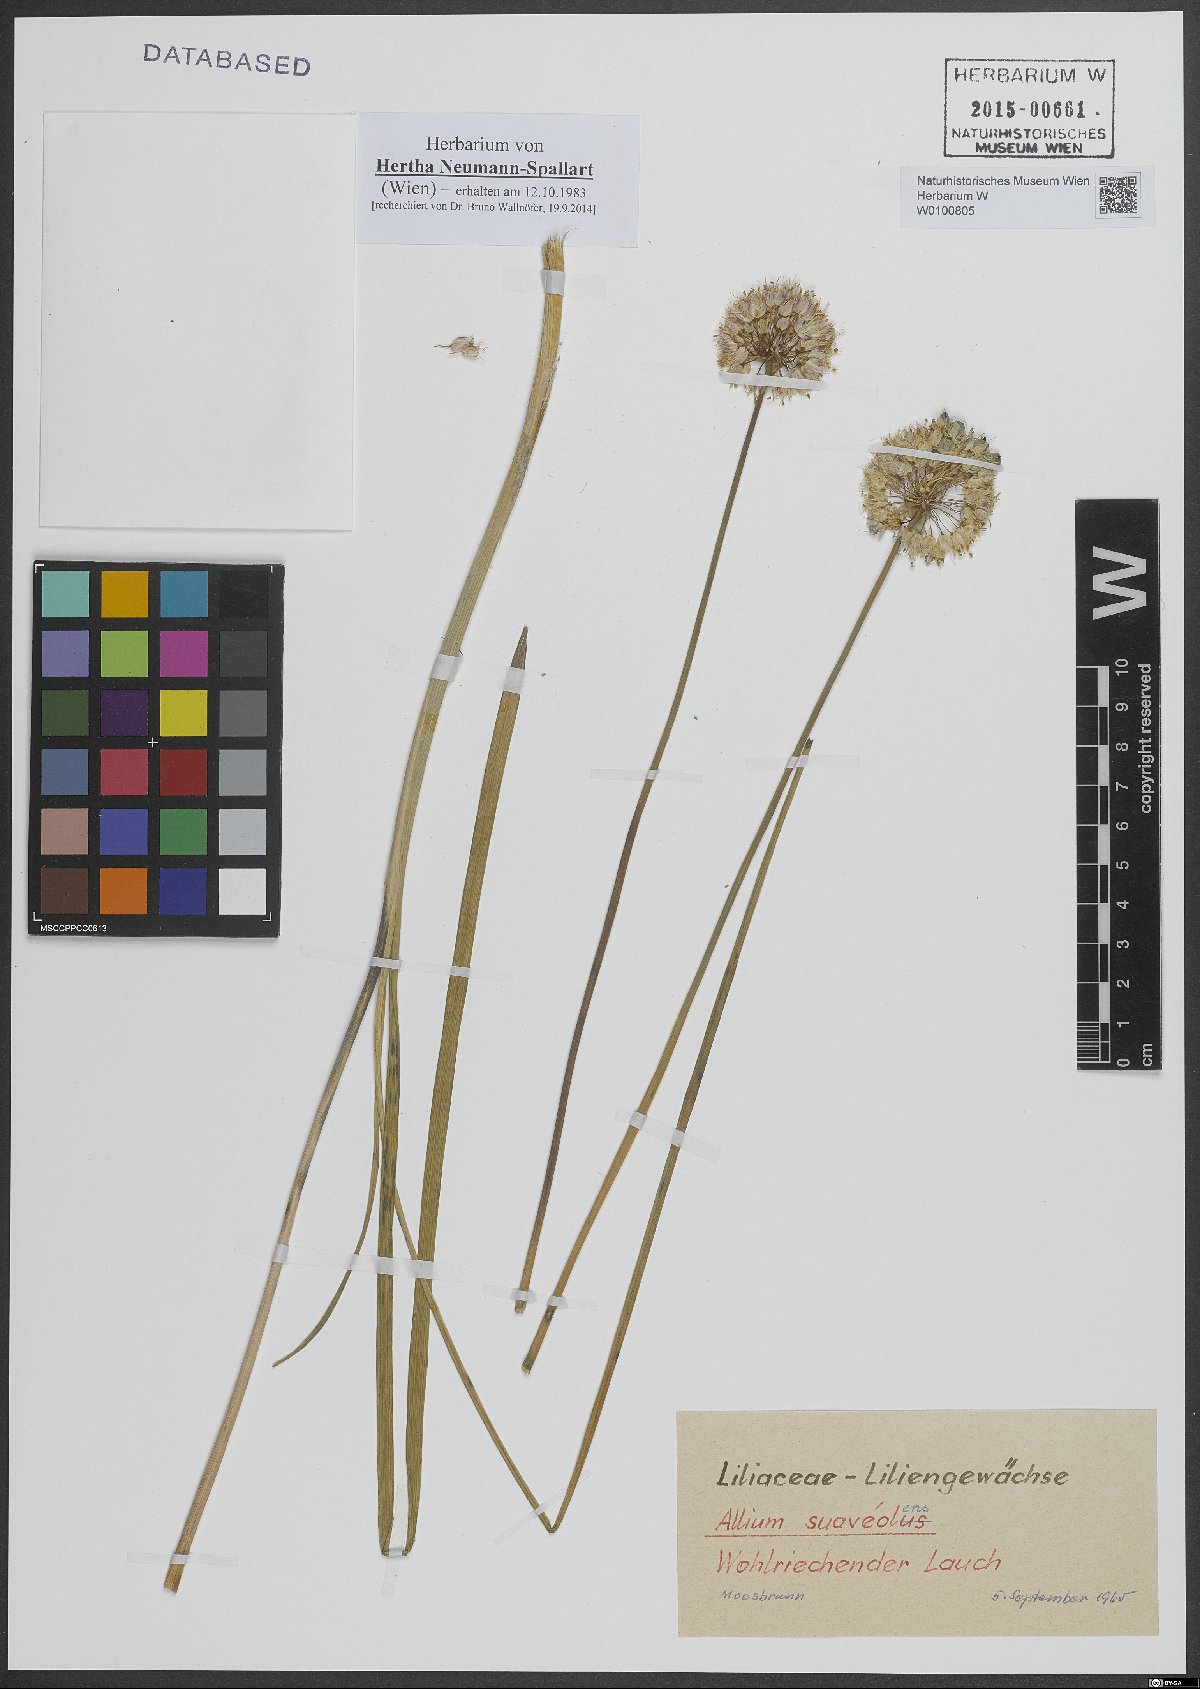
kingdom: Plantae
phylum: Tracheophyta
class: Liliopsida
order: Asparagales
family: Amaryllidaceae
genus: Allium
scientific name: Allium suaveolens
